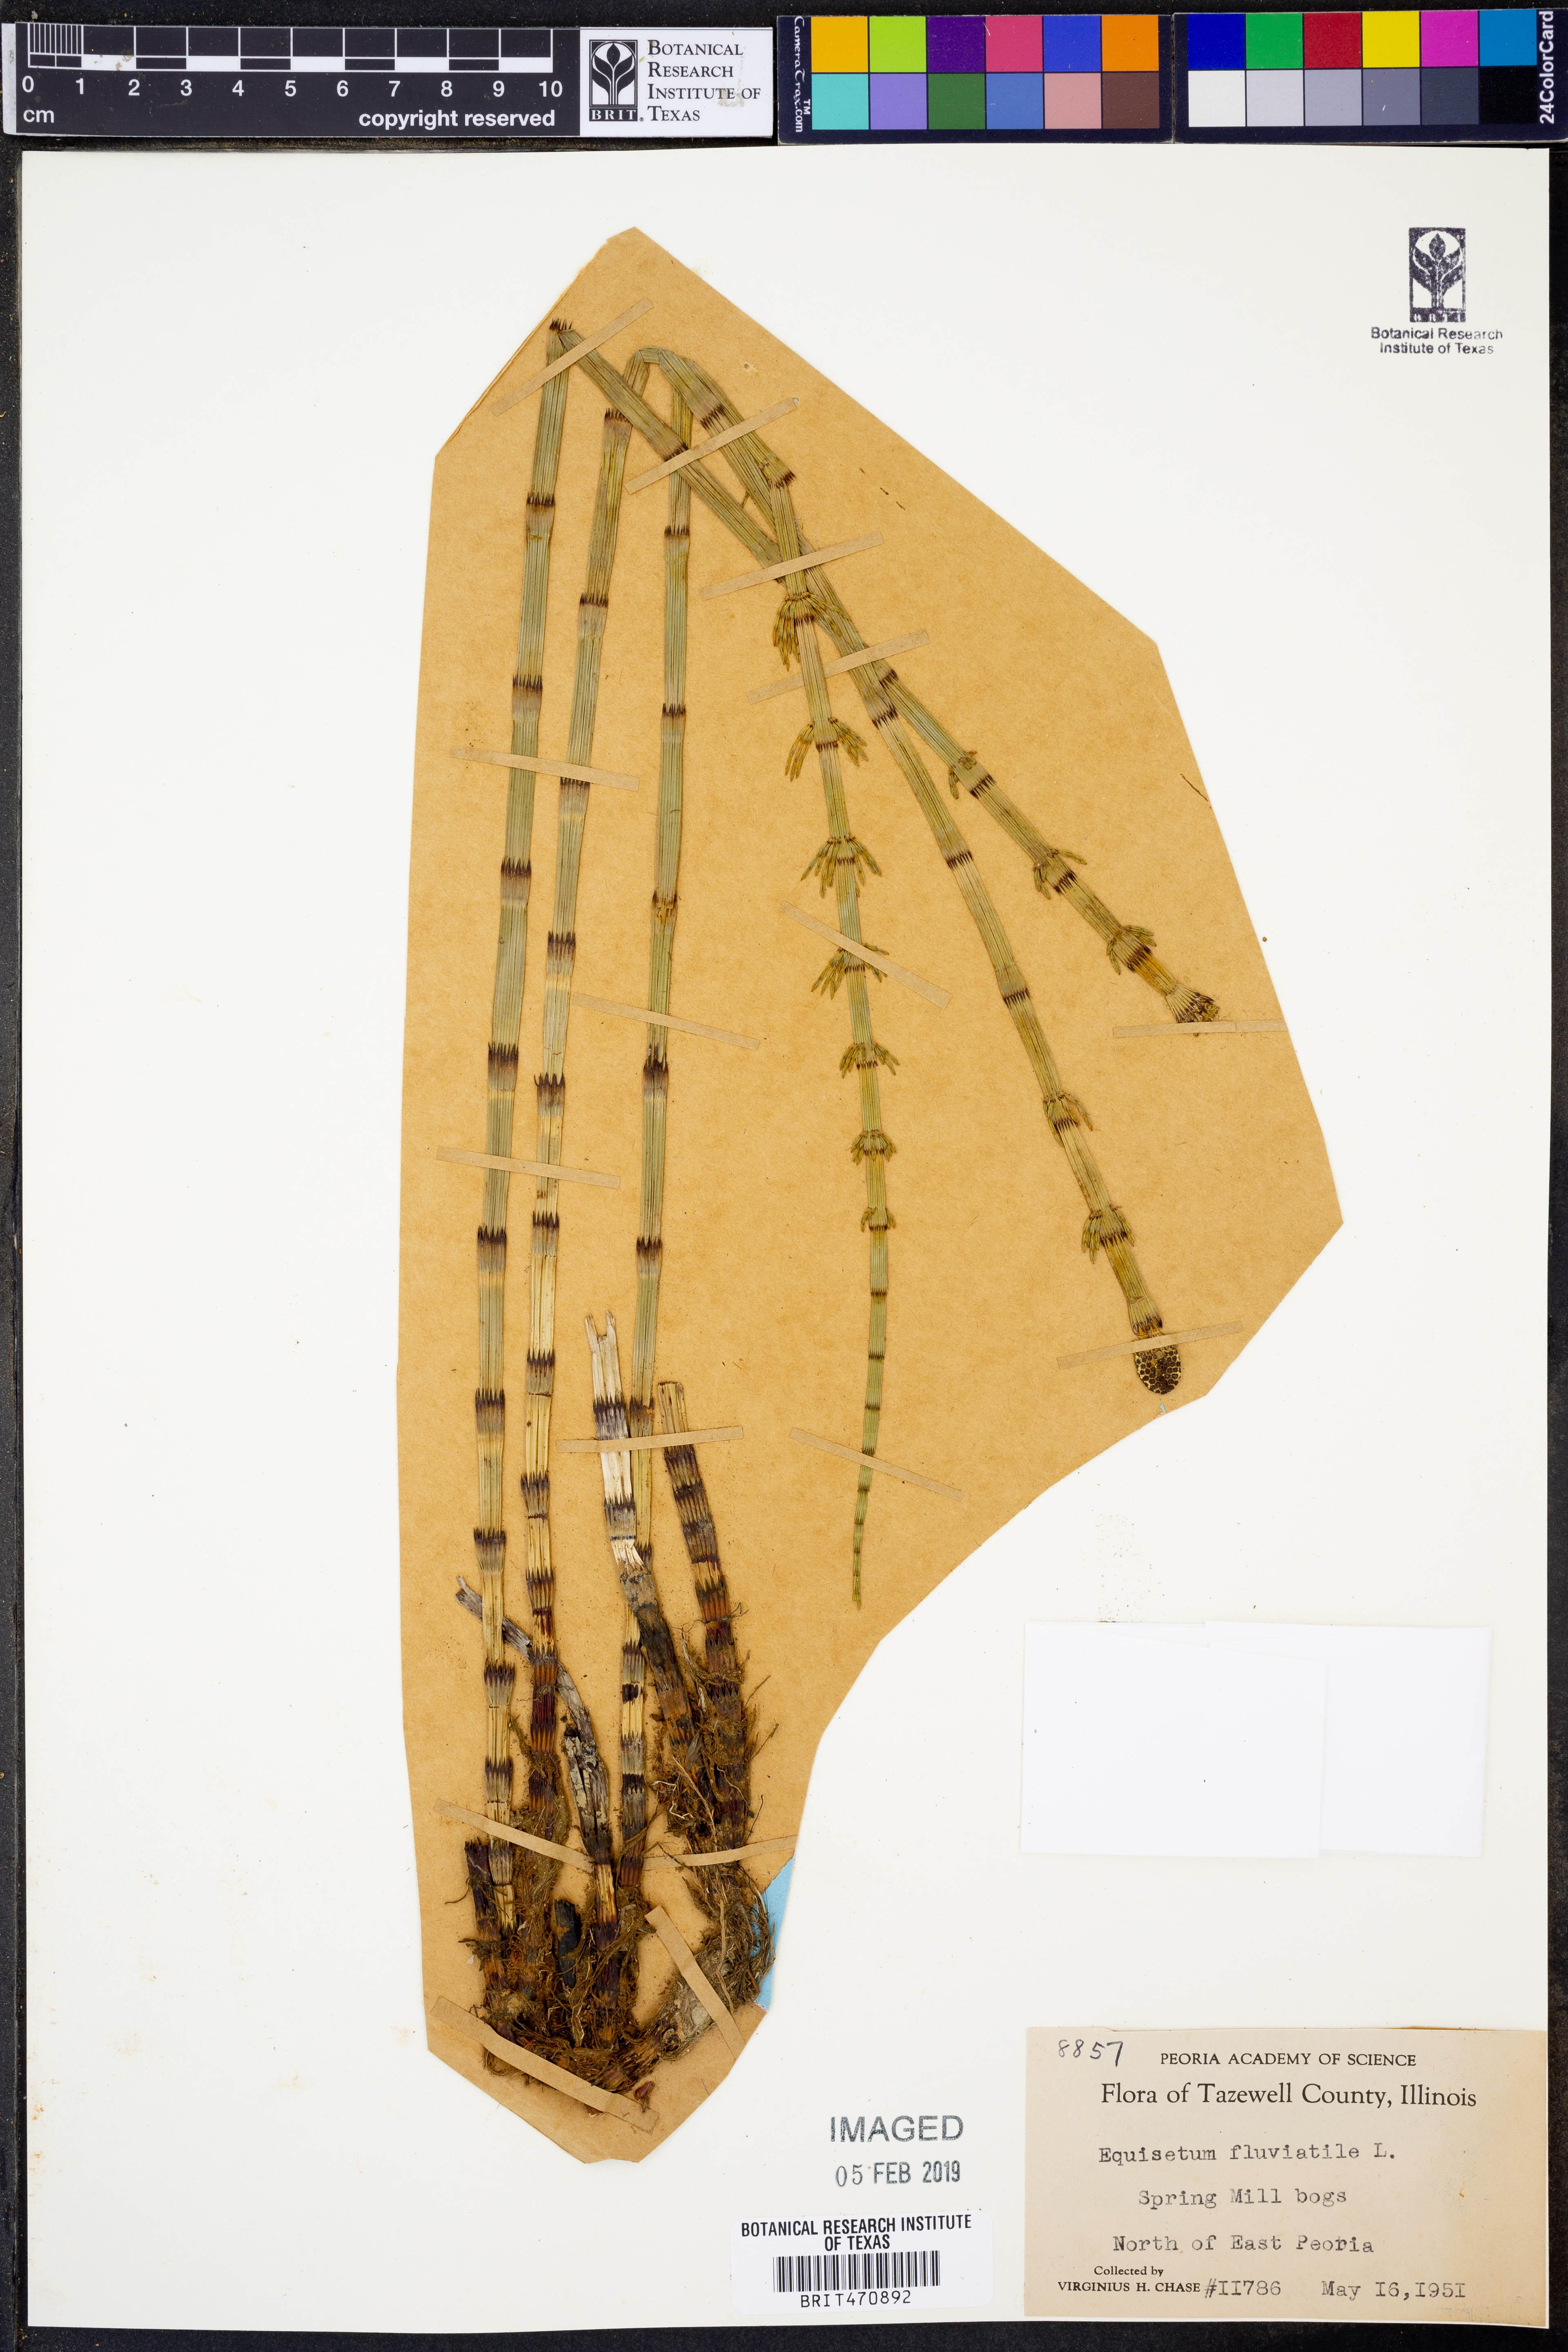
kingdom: Plantae
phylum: Tracheophyta
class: Polypodiopsida
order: Equisetales
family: Equisetaceae
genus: Equisetum
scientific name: Equisetum fluviatile
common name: Water horsetail
